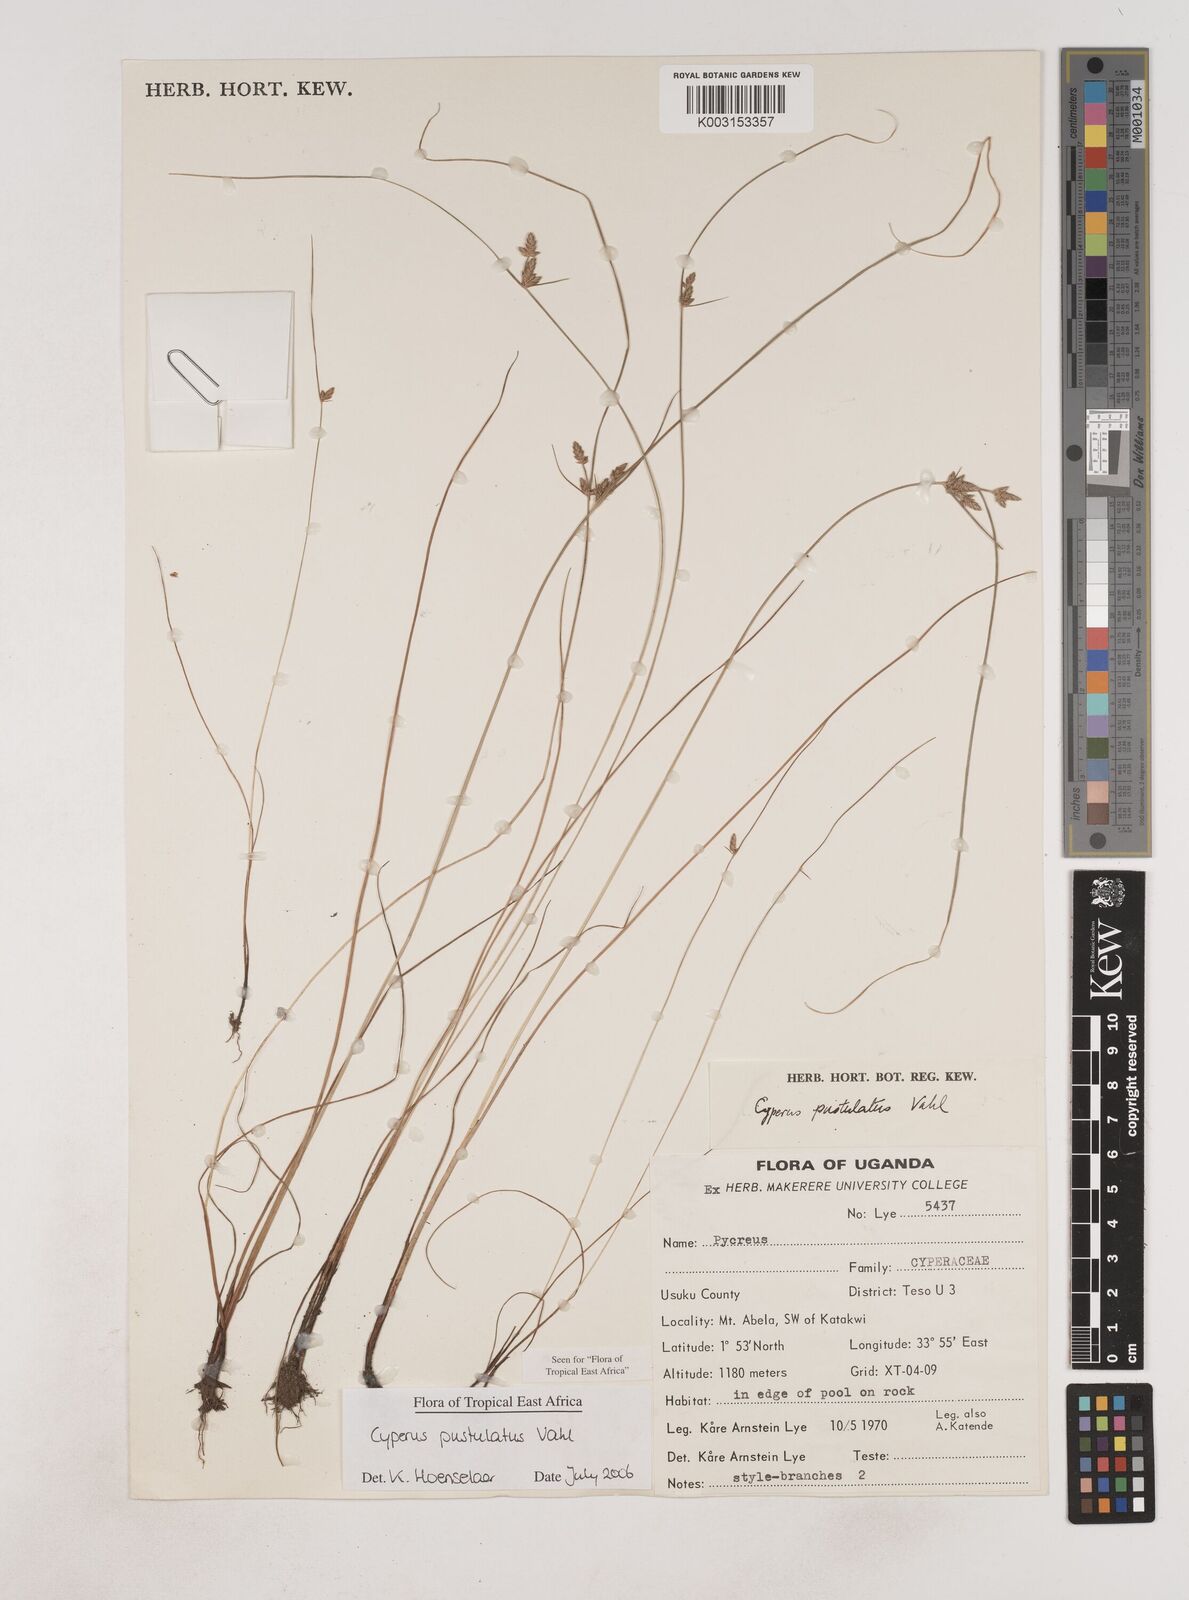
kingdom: Plantae
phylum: Tracheophyta
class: Liliopsida
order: Poales
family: Cyperaceae
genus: Cyperus
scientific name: Cyperus pustulatus
